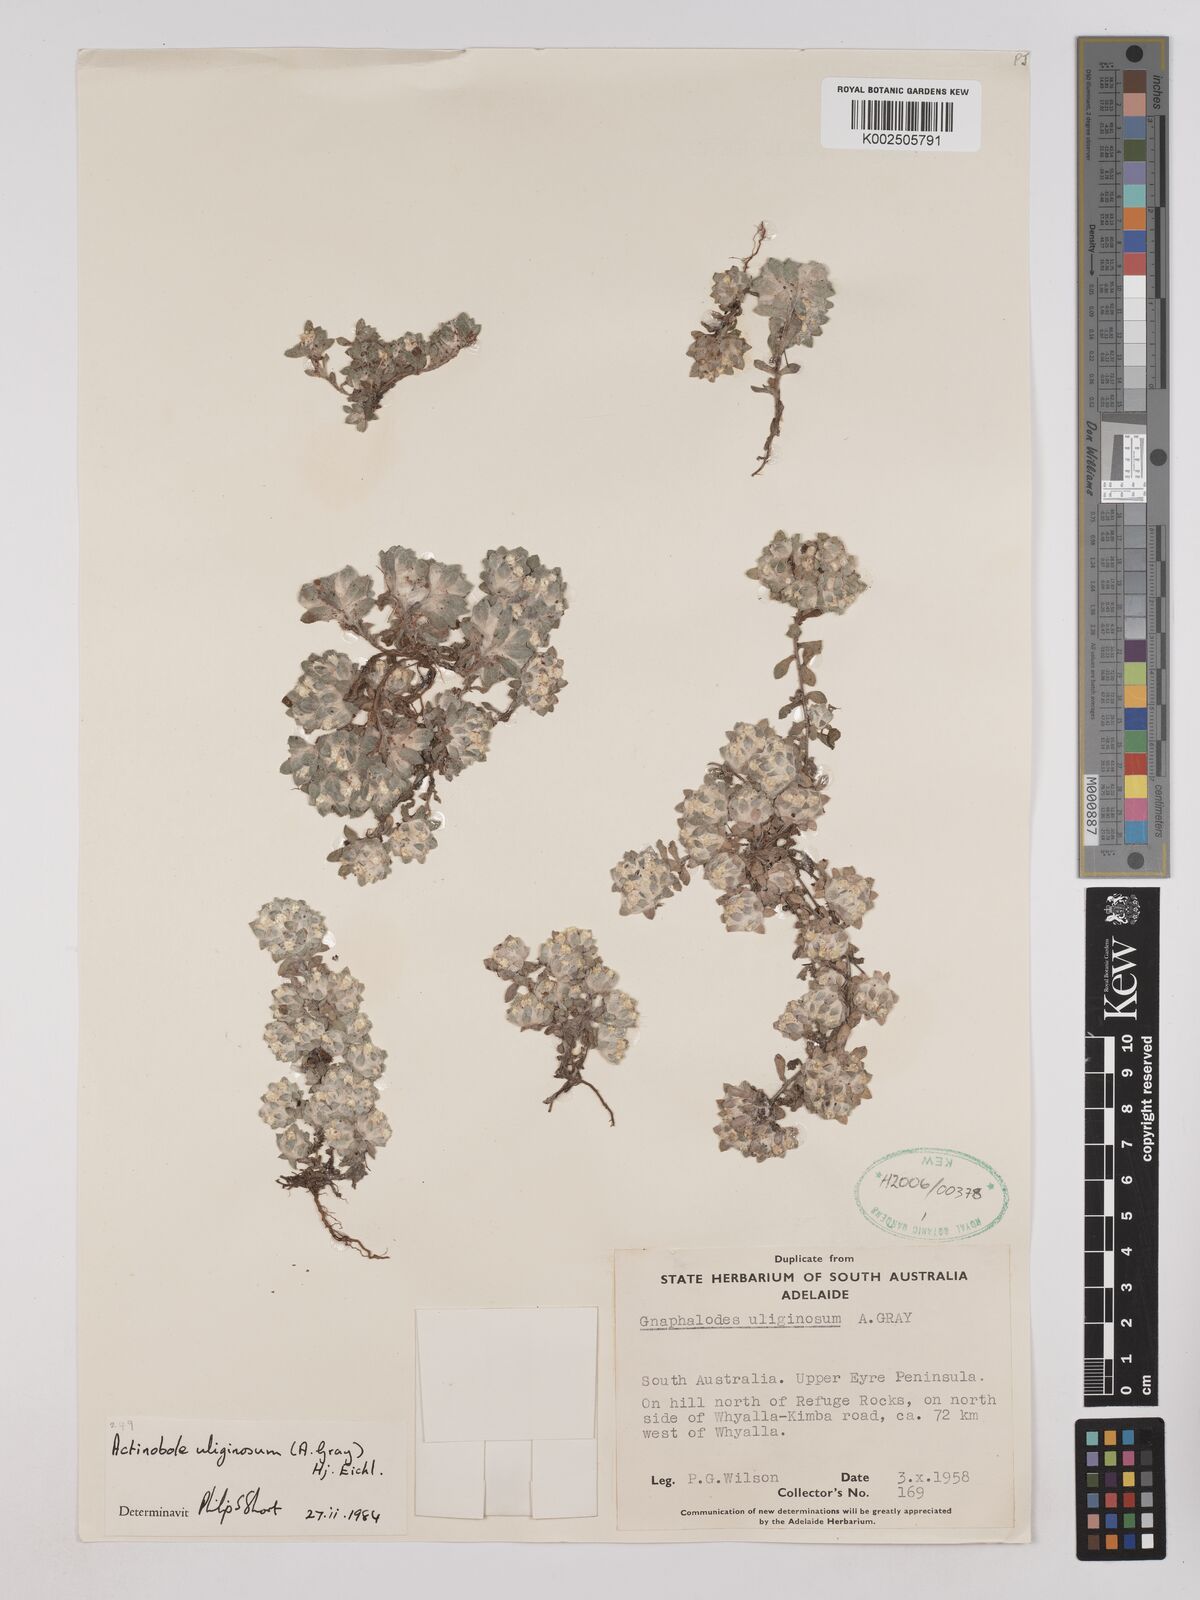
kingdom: Plantae
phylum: Tracheophyta
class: Magnoliopsida
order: Asterales
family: Asteraceae
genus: Actinobole
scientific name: Actinobole uliginosum
